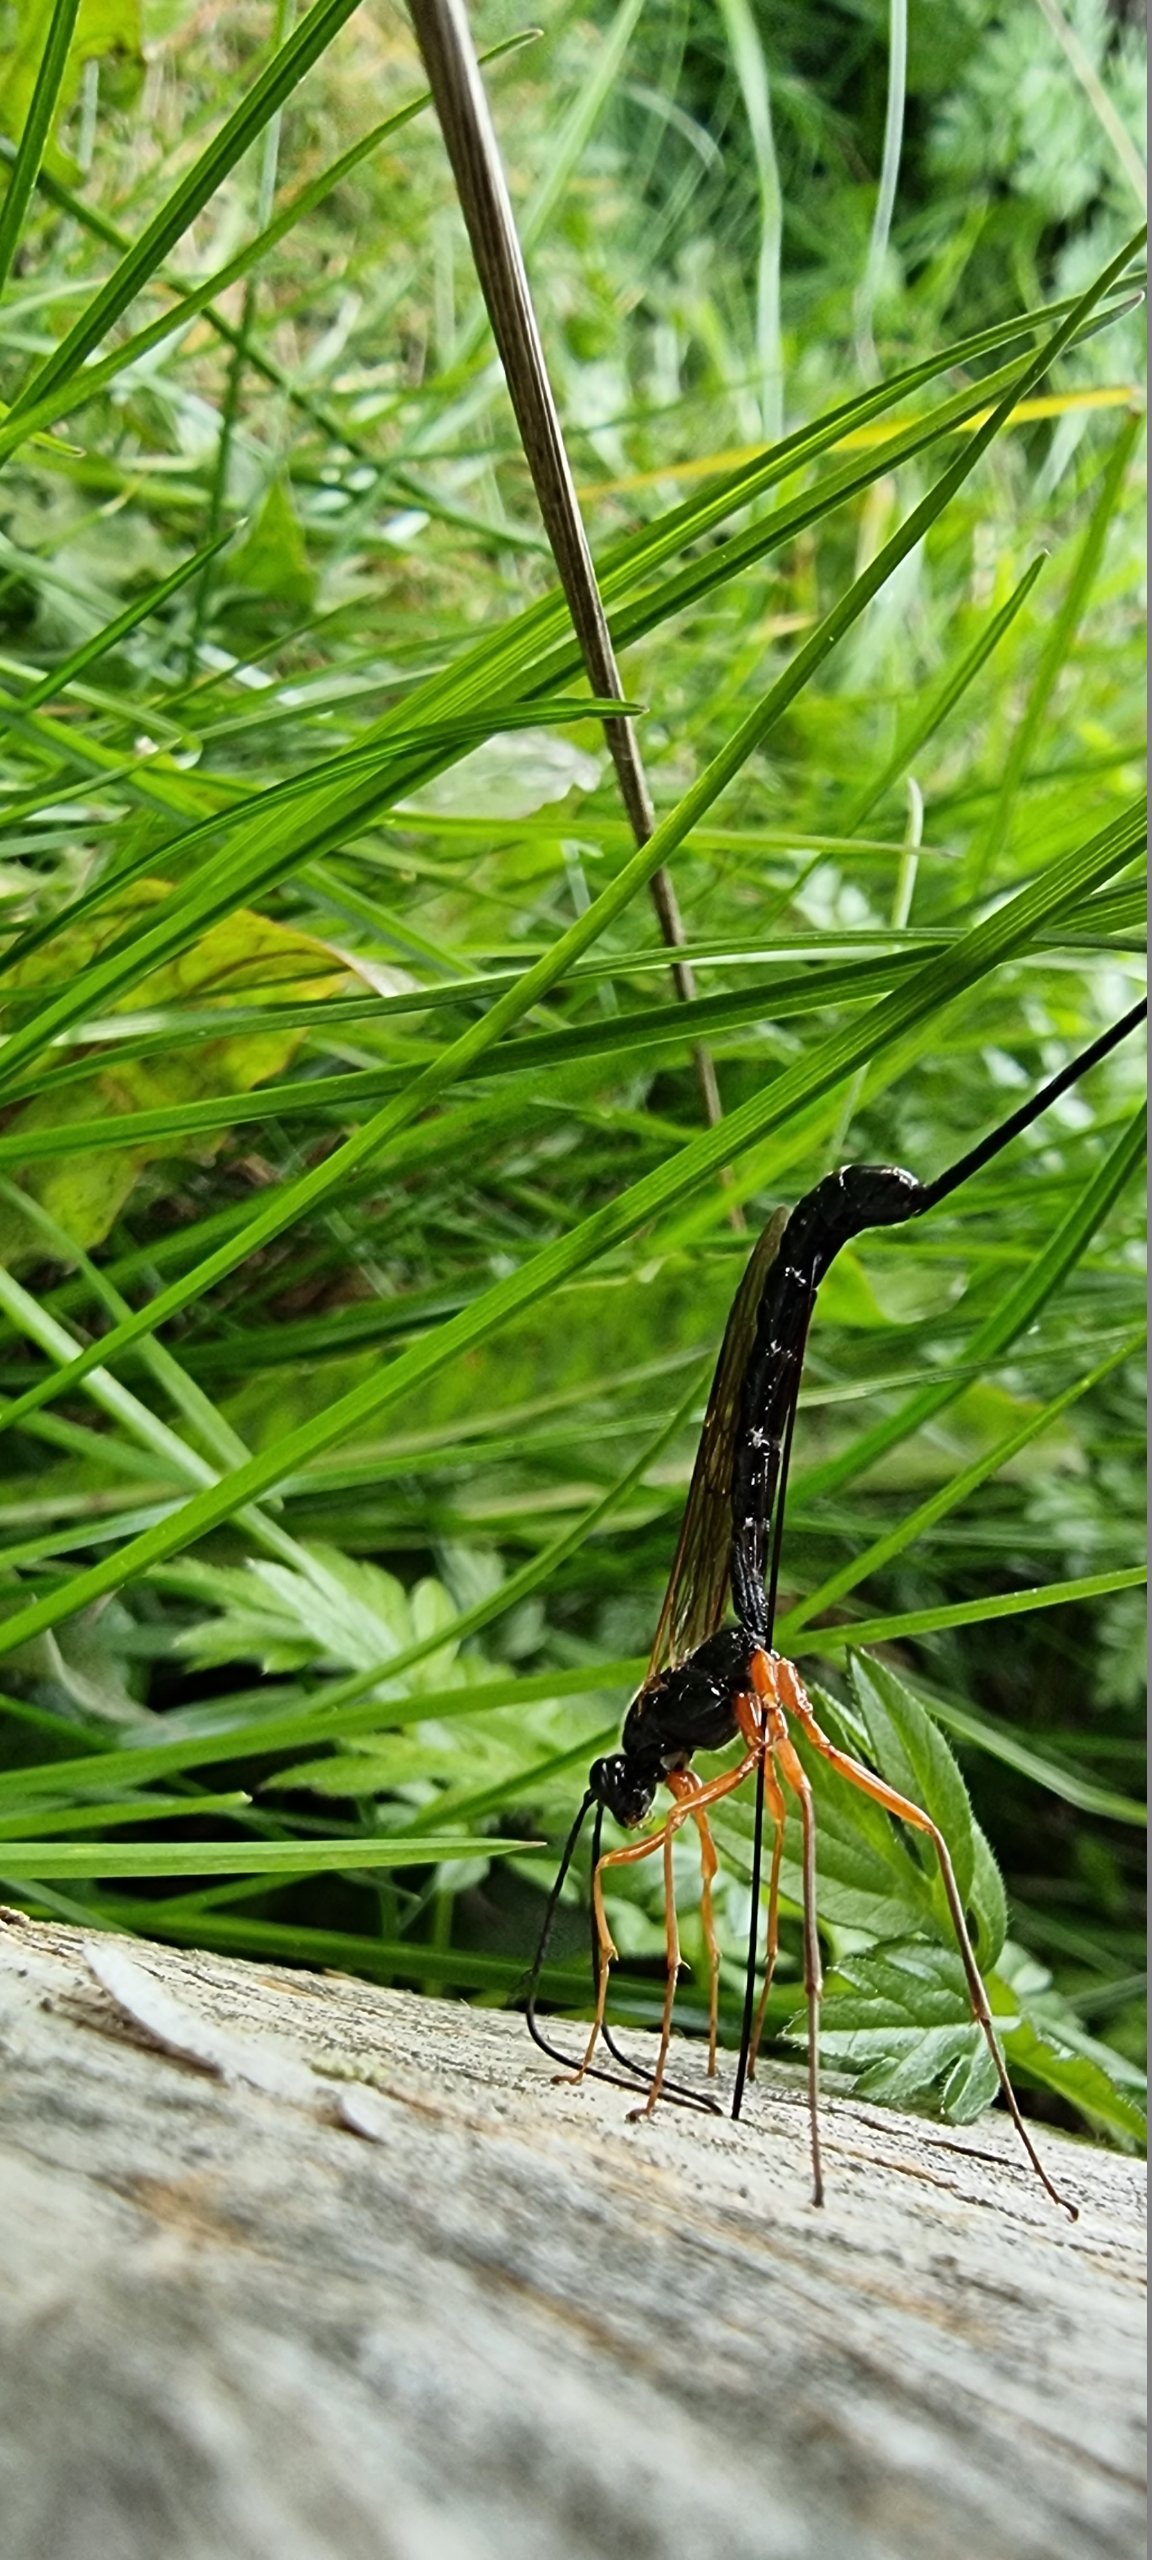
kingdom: Animalia
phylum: Arthropoda
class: Insecta
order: Hymenoptera
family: Ichneumonidae
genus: Dolichomitus
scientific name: Dolichomitus
